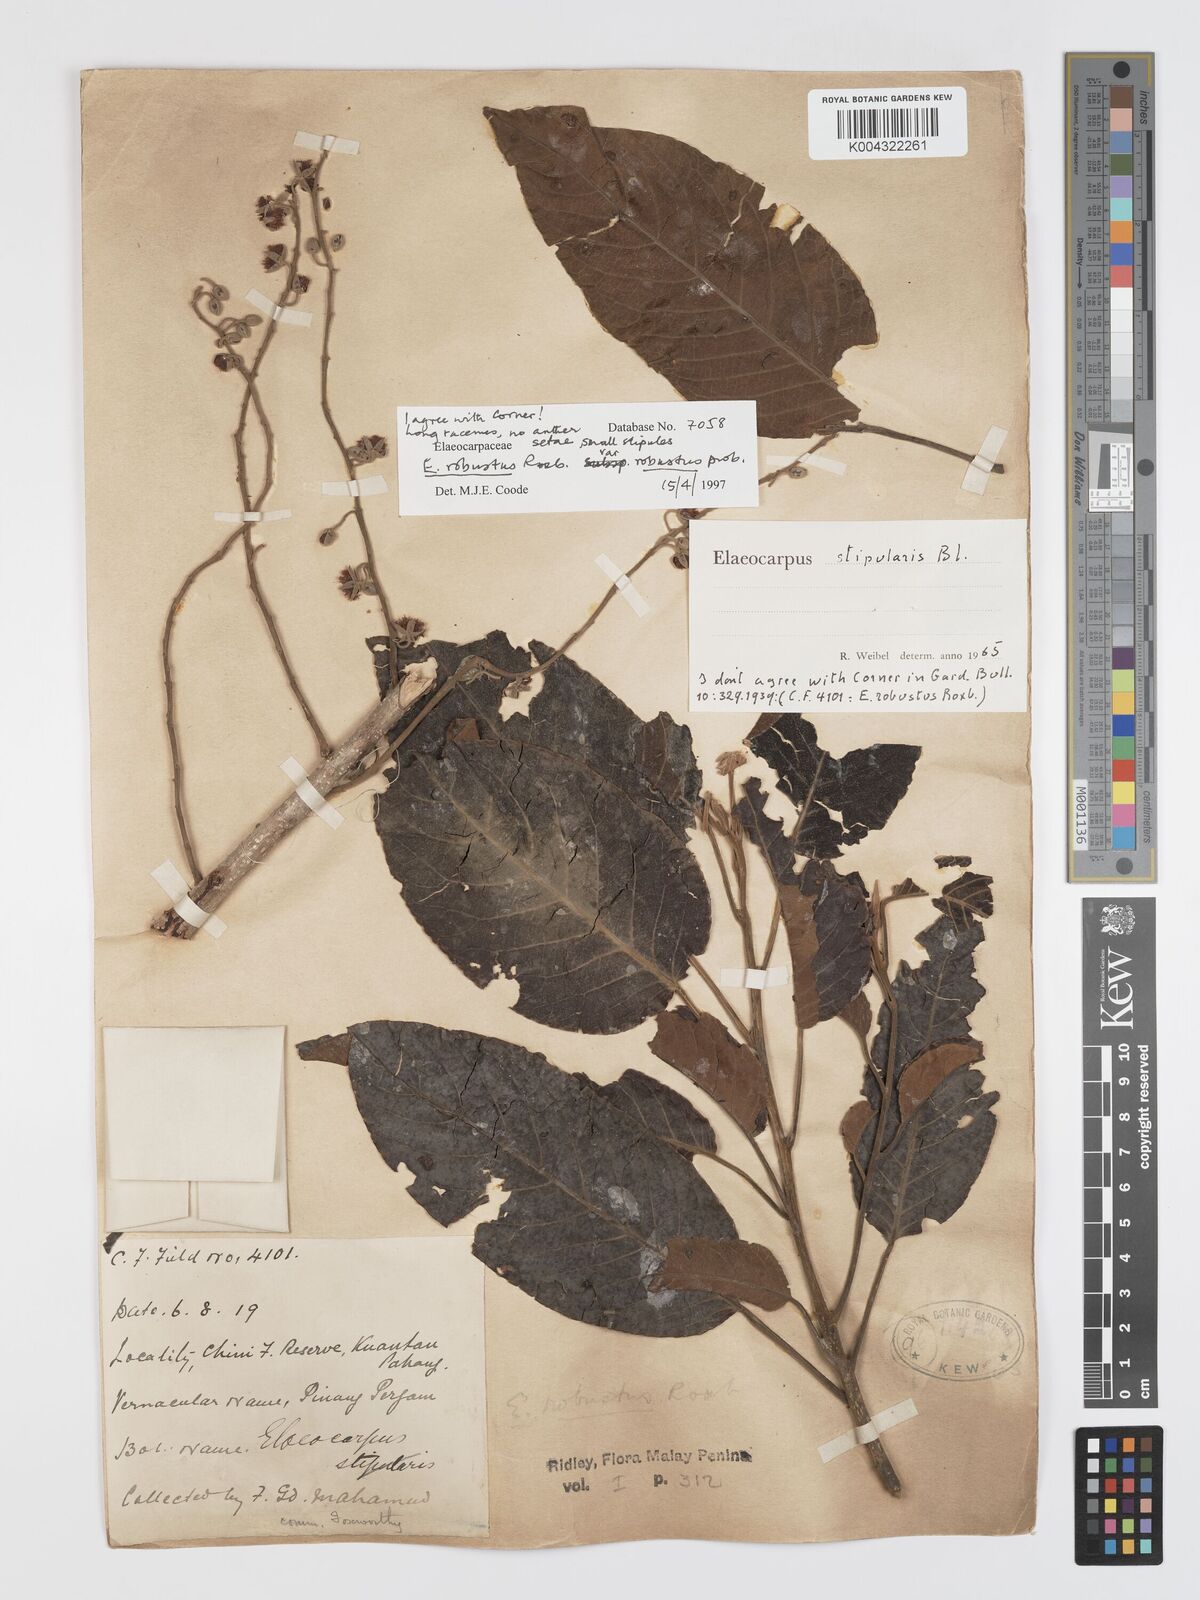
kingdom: Plantae
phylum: Tracheophyta
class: Magnoliopsida
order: Oxalidales
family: Elaeocarpaceae
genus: Elaeocarpus
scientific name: Elaeocarpus robustus
